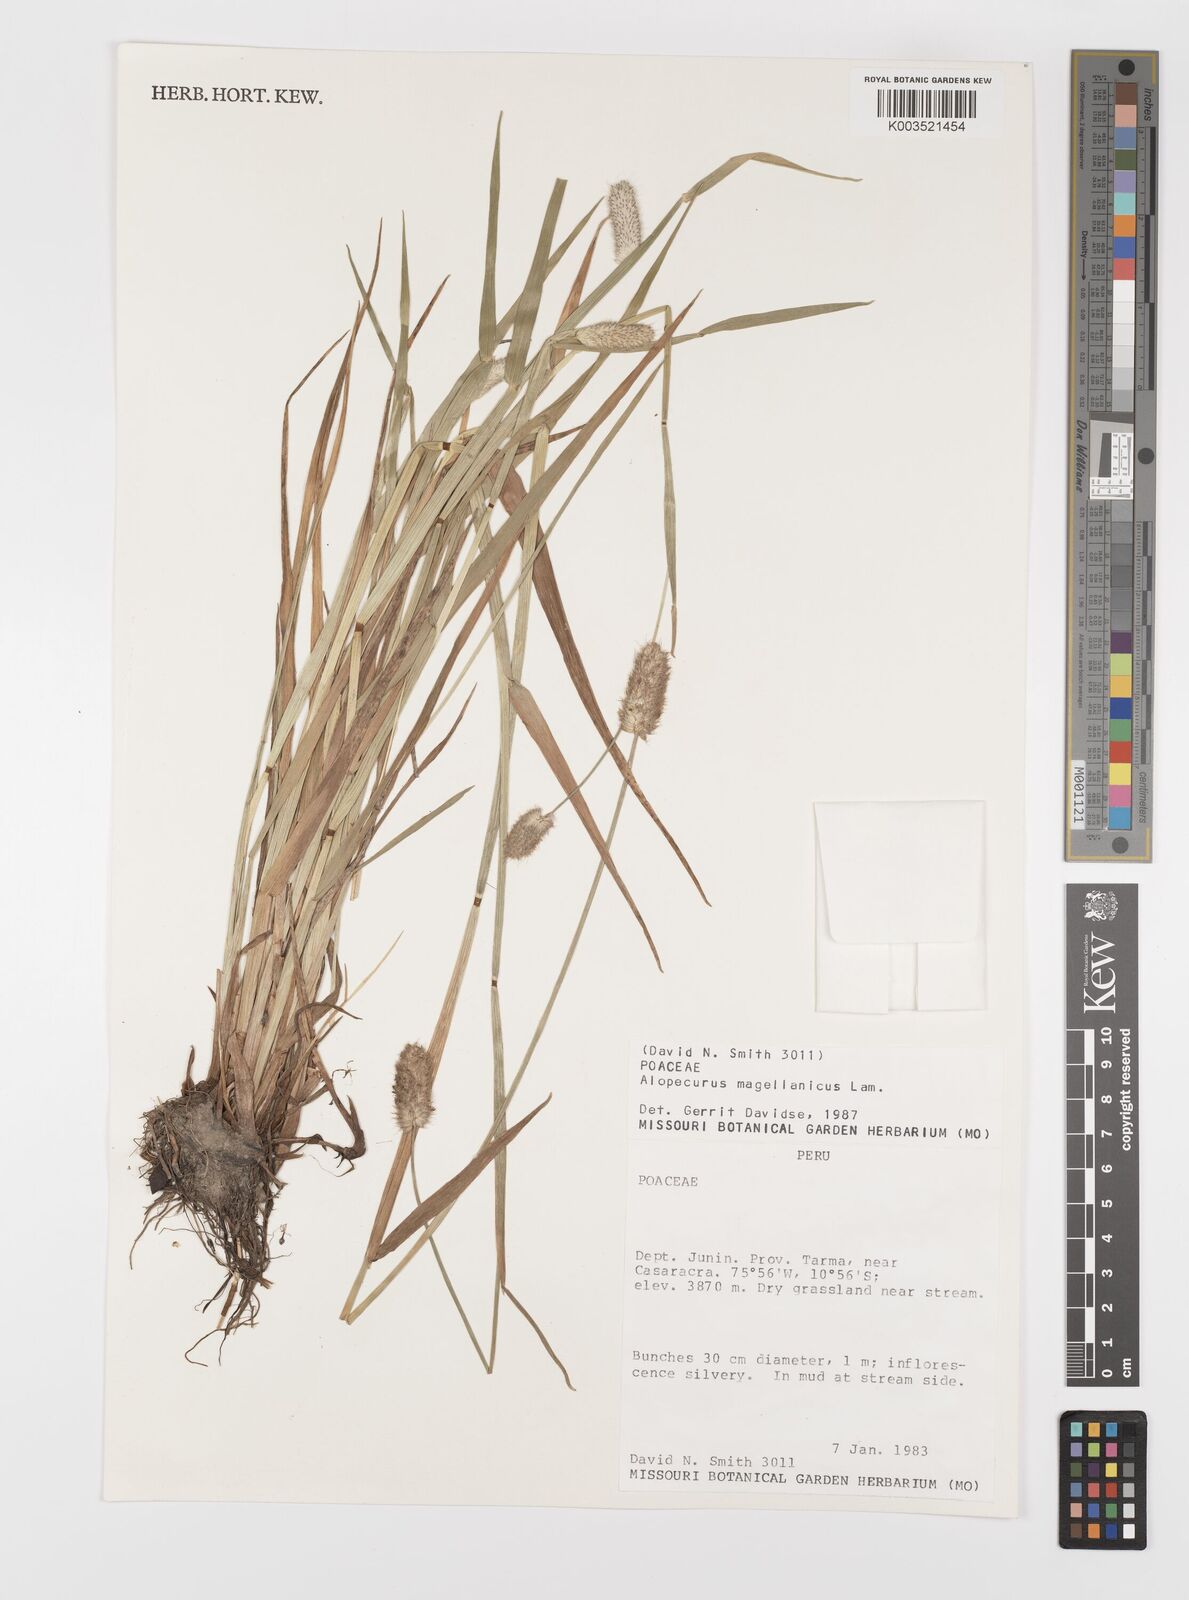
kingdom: Plantae
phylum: Tracheophyta
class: Liliopsida
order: Poales
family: Poaceae
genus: Alopecurus
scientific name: Alopecurus magellanicus
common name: Alpine foxtail
